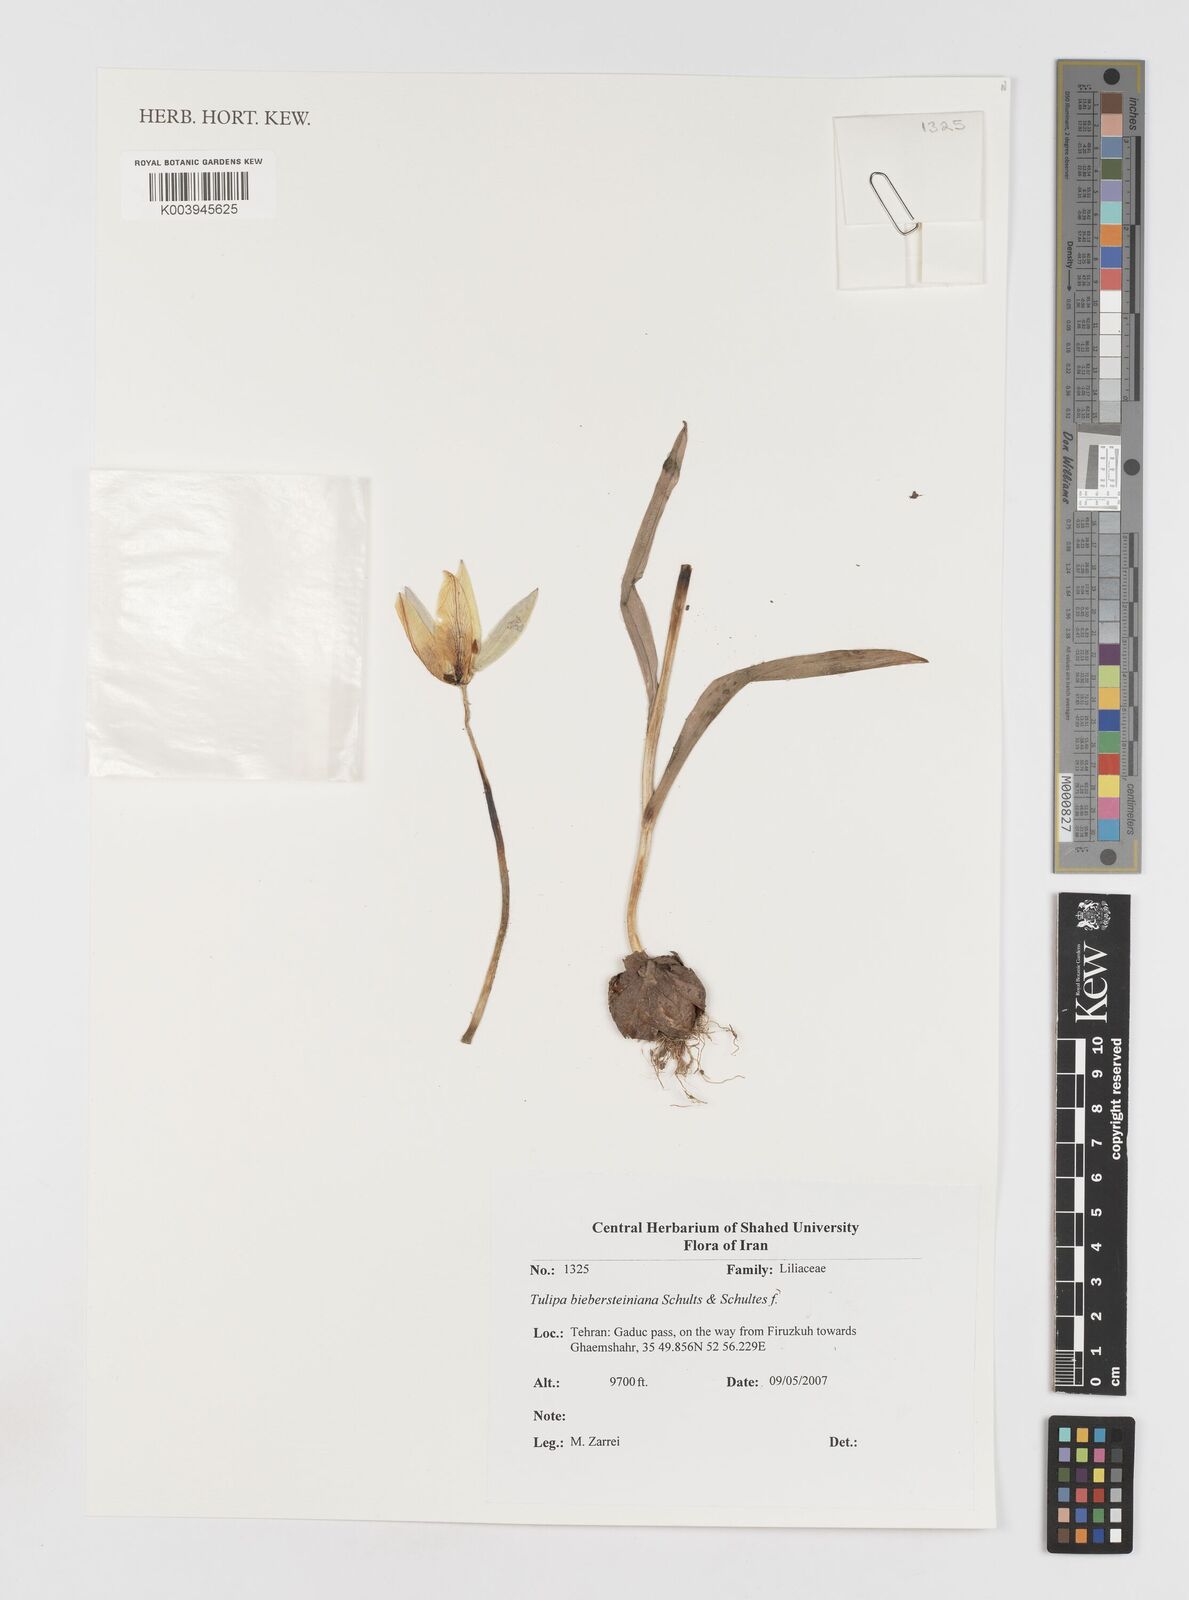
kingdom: Plantae
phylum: Tracheophyta
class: Liliopsida
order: Liliales
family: Liliaceae
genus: Tulipa
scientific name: Tulipa sylvestris
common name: Wild tulip
